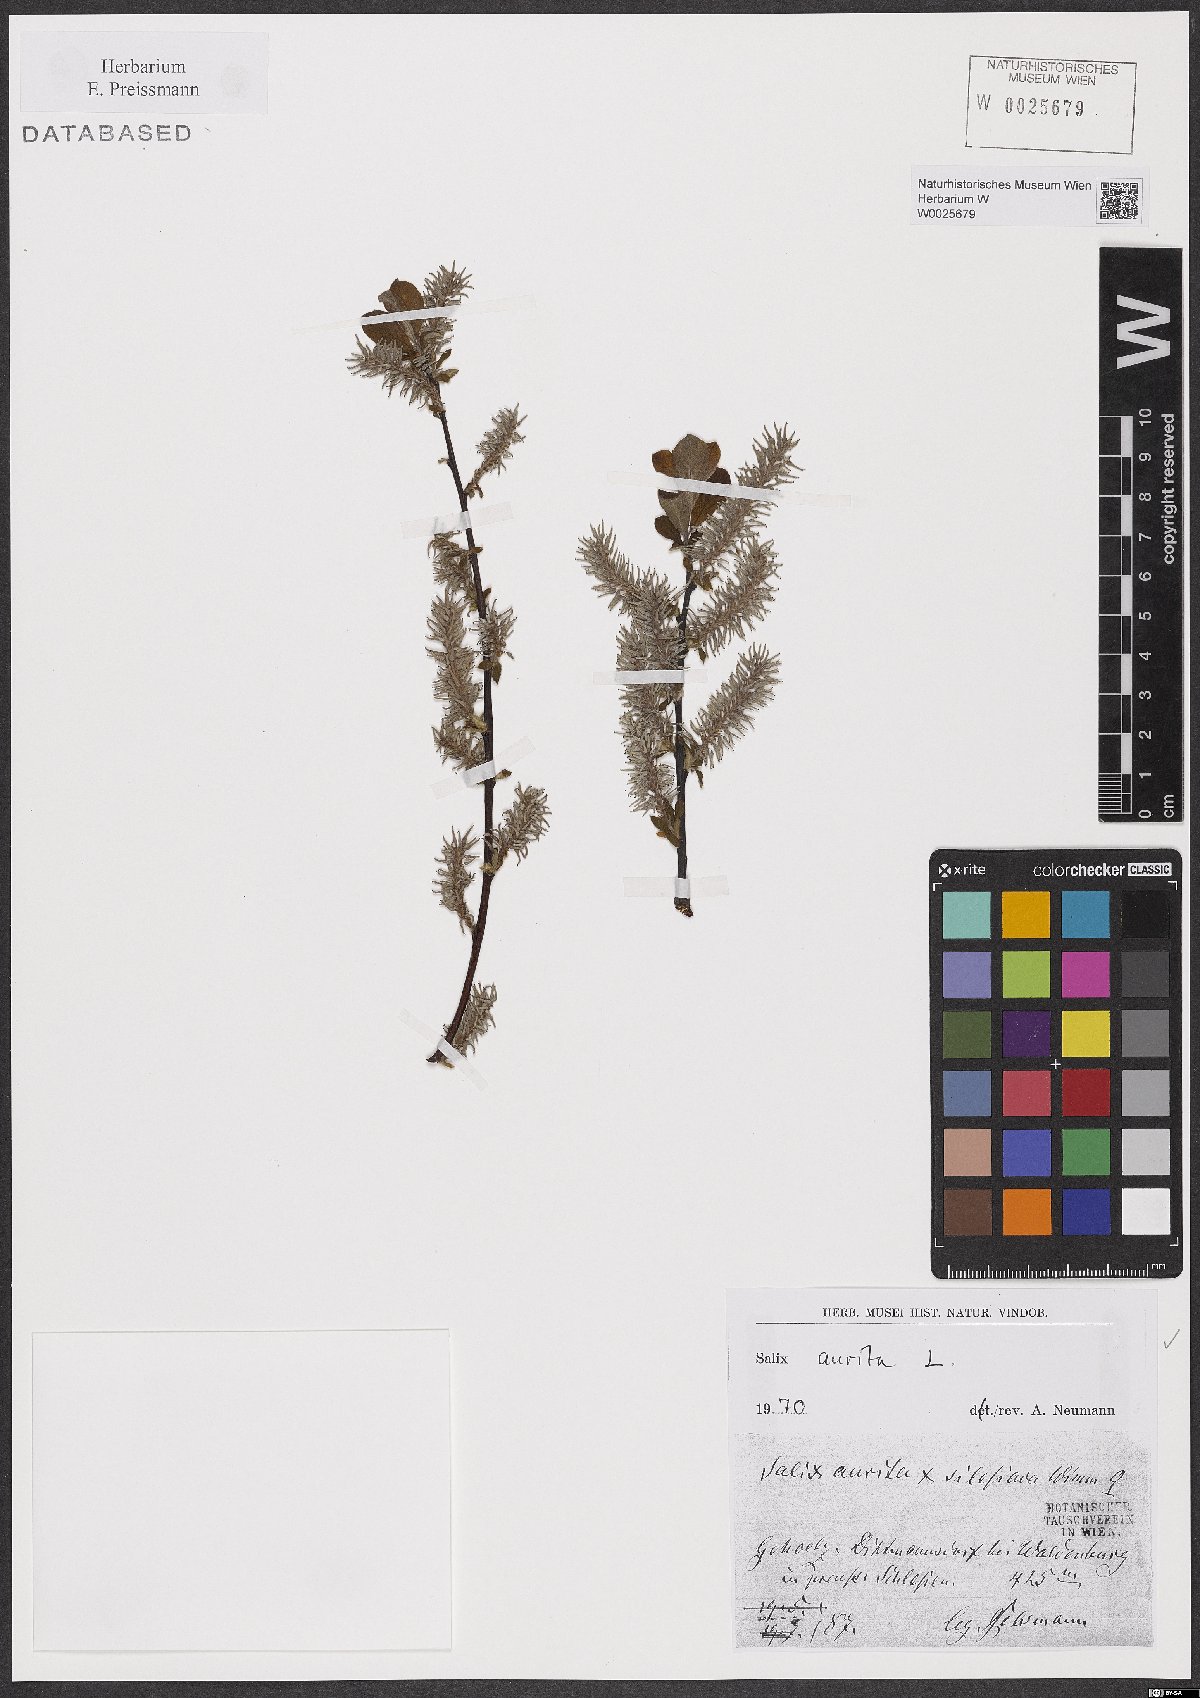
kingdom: Plantae
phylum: Tracheophyta
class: Magnoliopsida
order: Malpighiales
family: Salicaceae
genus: Salix
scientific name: Salix aurita
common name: Eared willow
